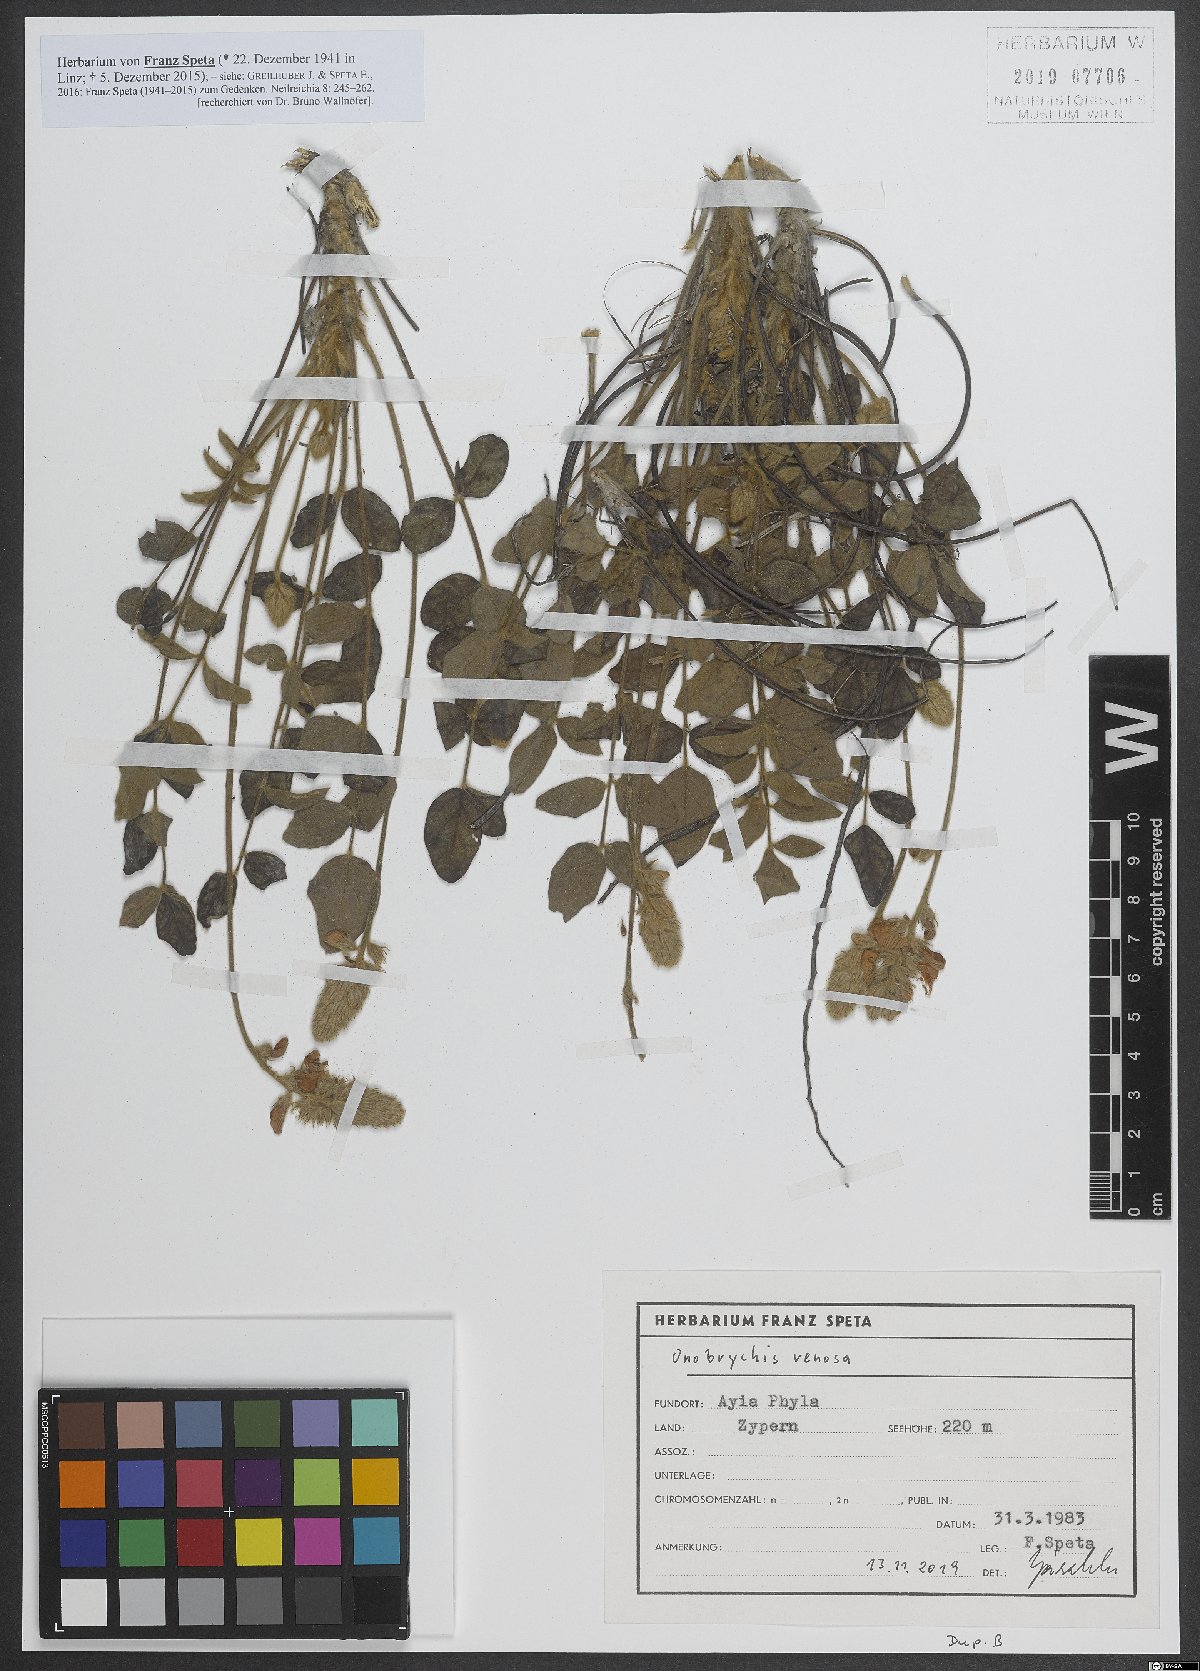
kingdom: Plantae
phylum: Tracheophyta
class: Magnoliopsida
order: Fabales
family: Fabaceae
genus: Onobrychis
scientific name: Onobrychis venosa
